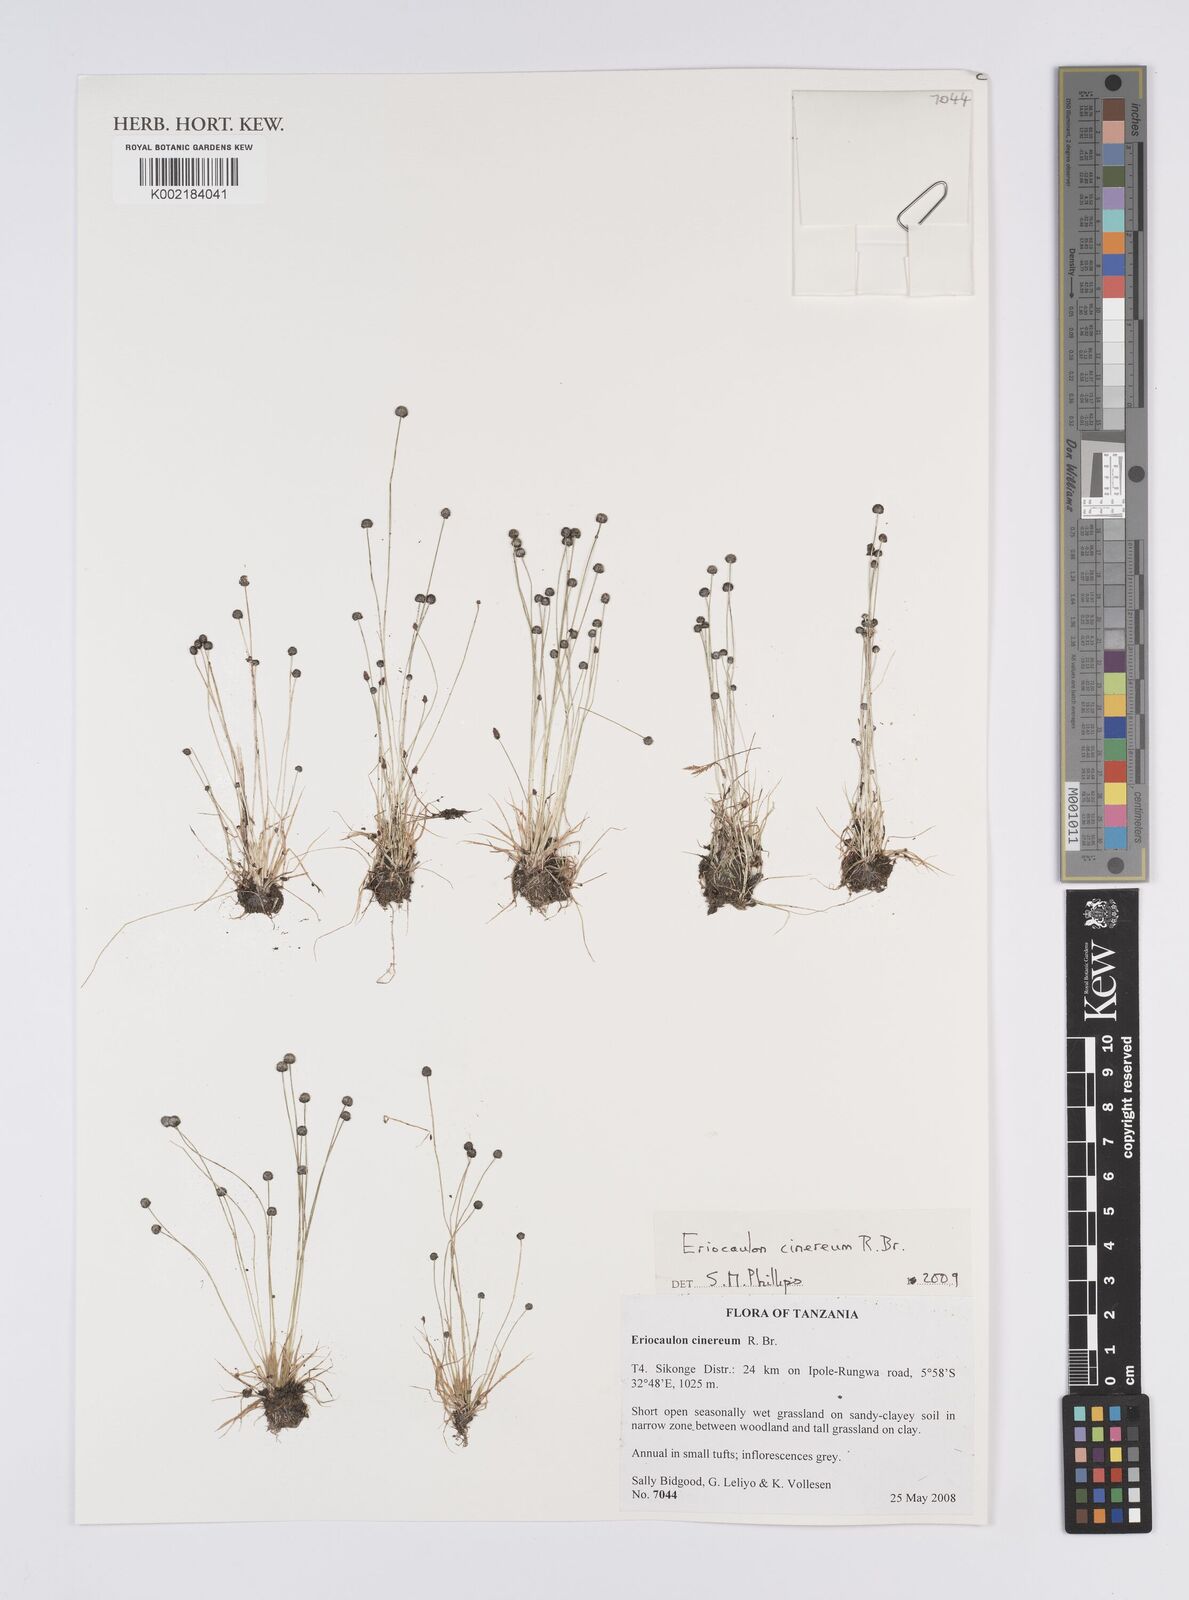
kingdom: Plantae
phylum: Tracheophyta
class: Liliopsida
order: Poales
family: Eriocaulaceae
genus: Eriocaulon
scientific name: Eriocaulon cinereum
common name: Ashy pipewort
